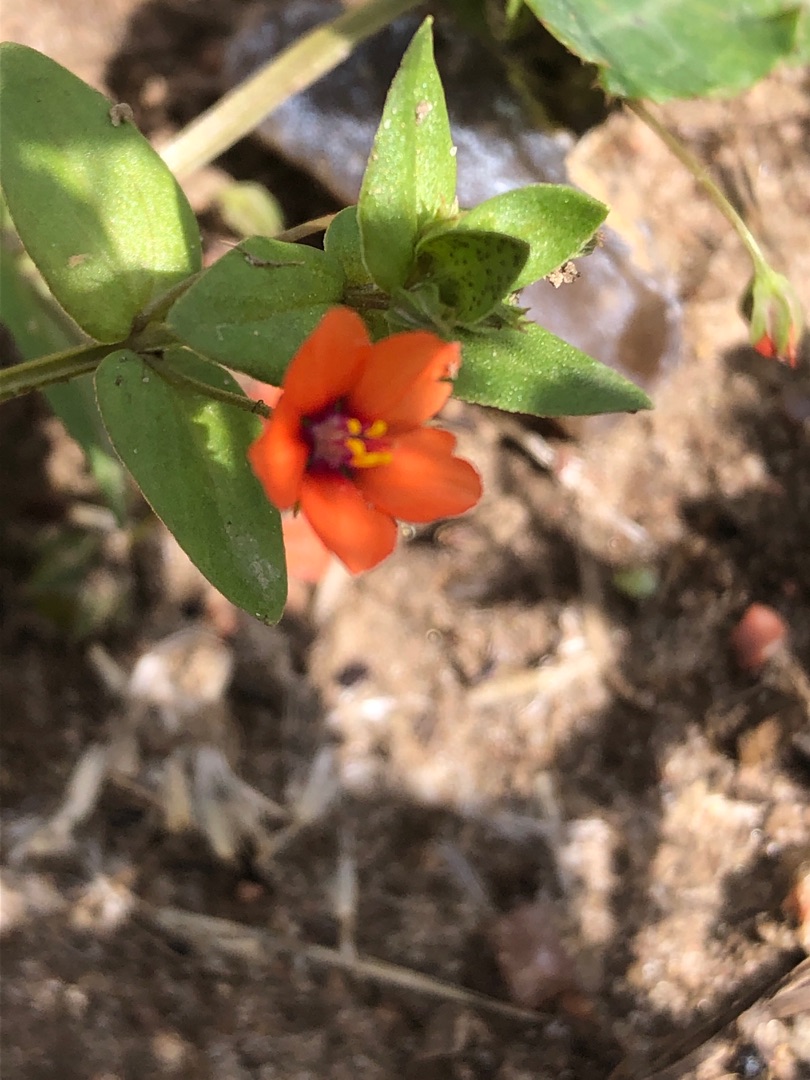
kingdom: Plantae
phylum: Tracheophyta
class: Magnoliopsida
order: Ericales
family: Primulaceae
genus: Lysimachia
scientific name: Lysimachia arvensis
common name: Rød arve
